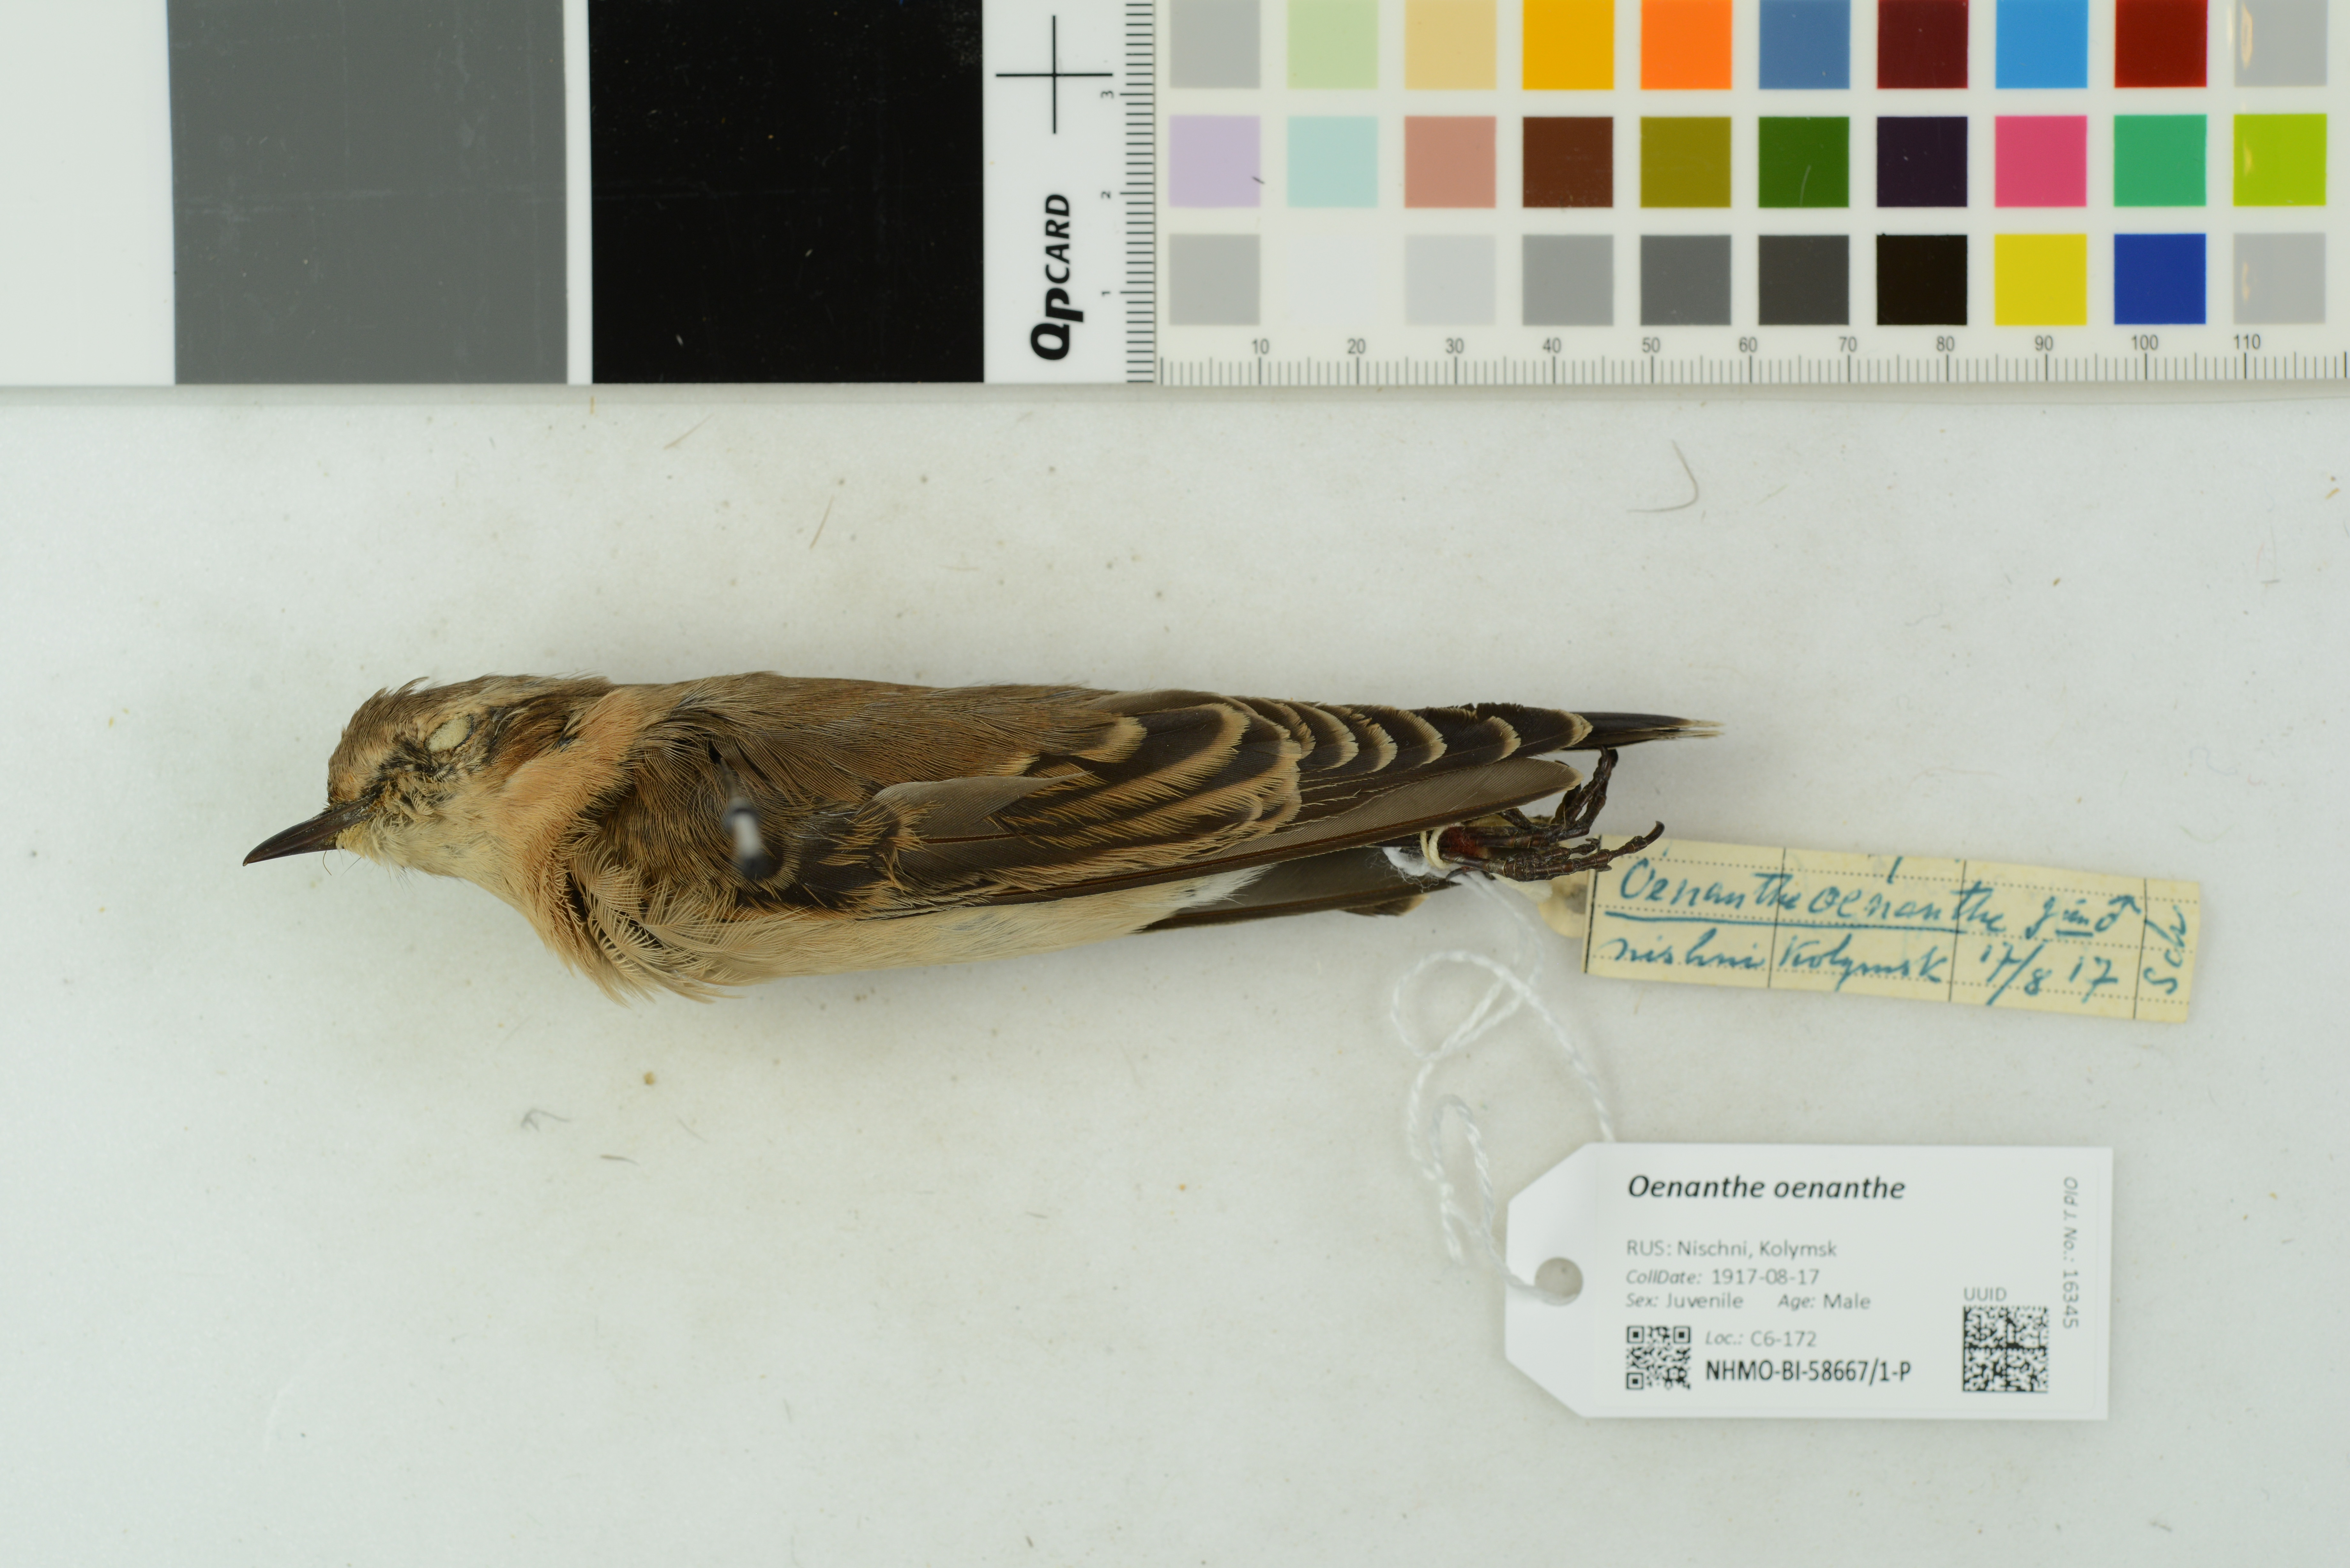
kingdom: Animalia
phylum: Chordata
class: Aves
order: Passeriformes
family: Muscicapidae
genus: Oenanthe
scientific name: Oenanthe oenanthe
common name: Northern wheatear
